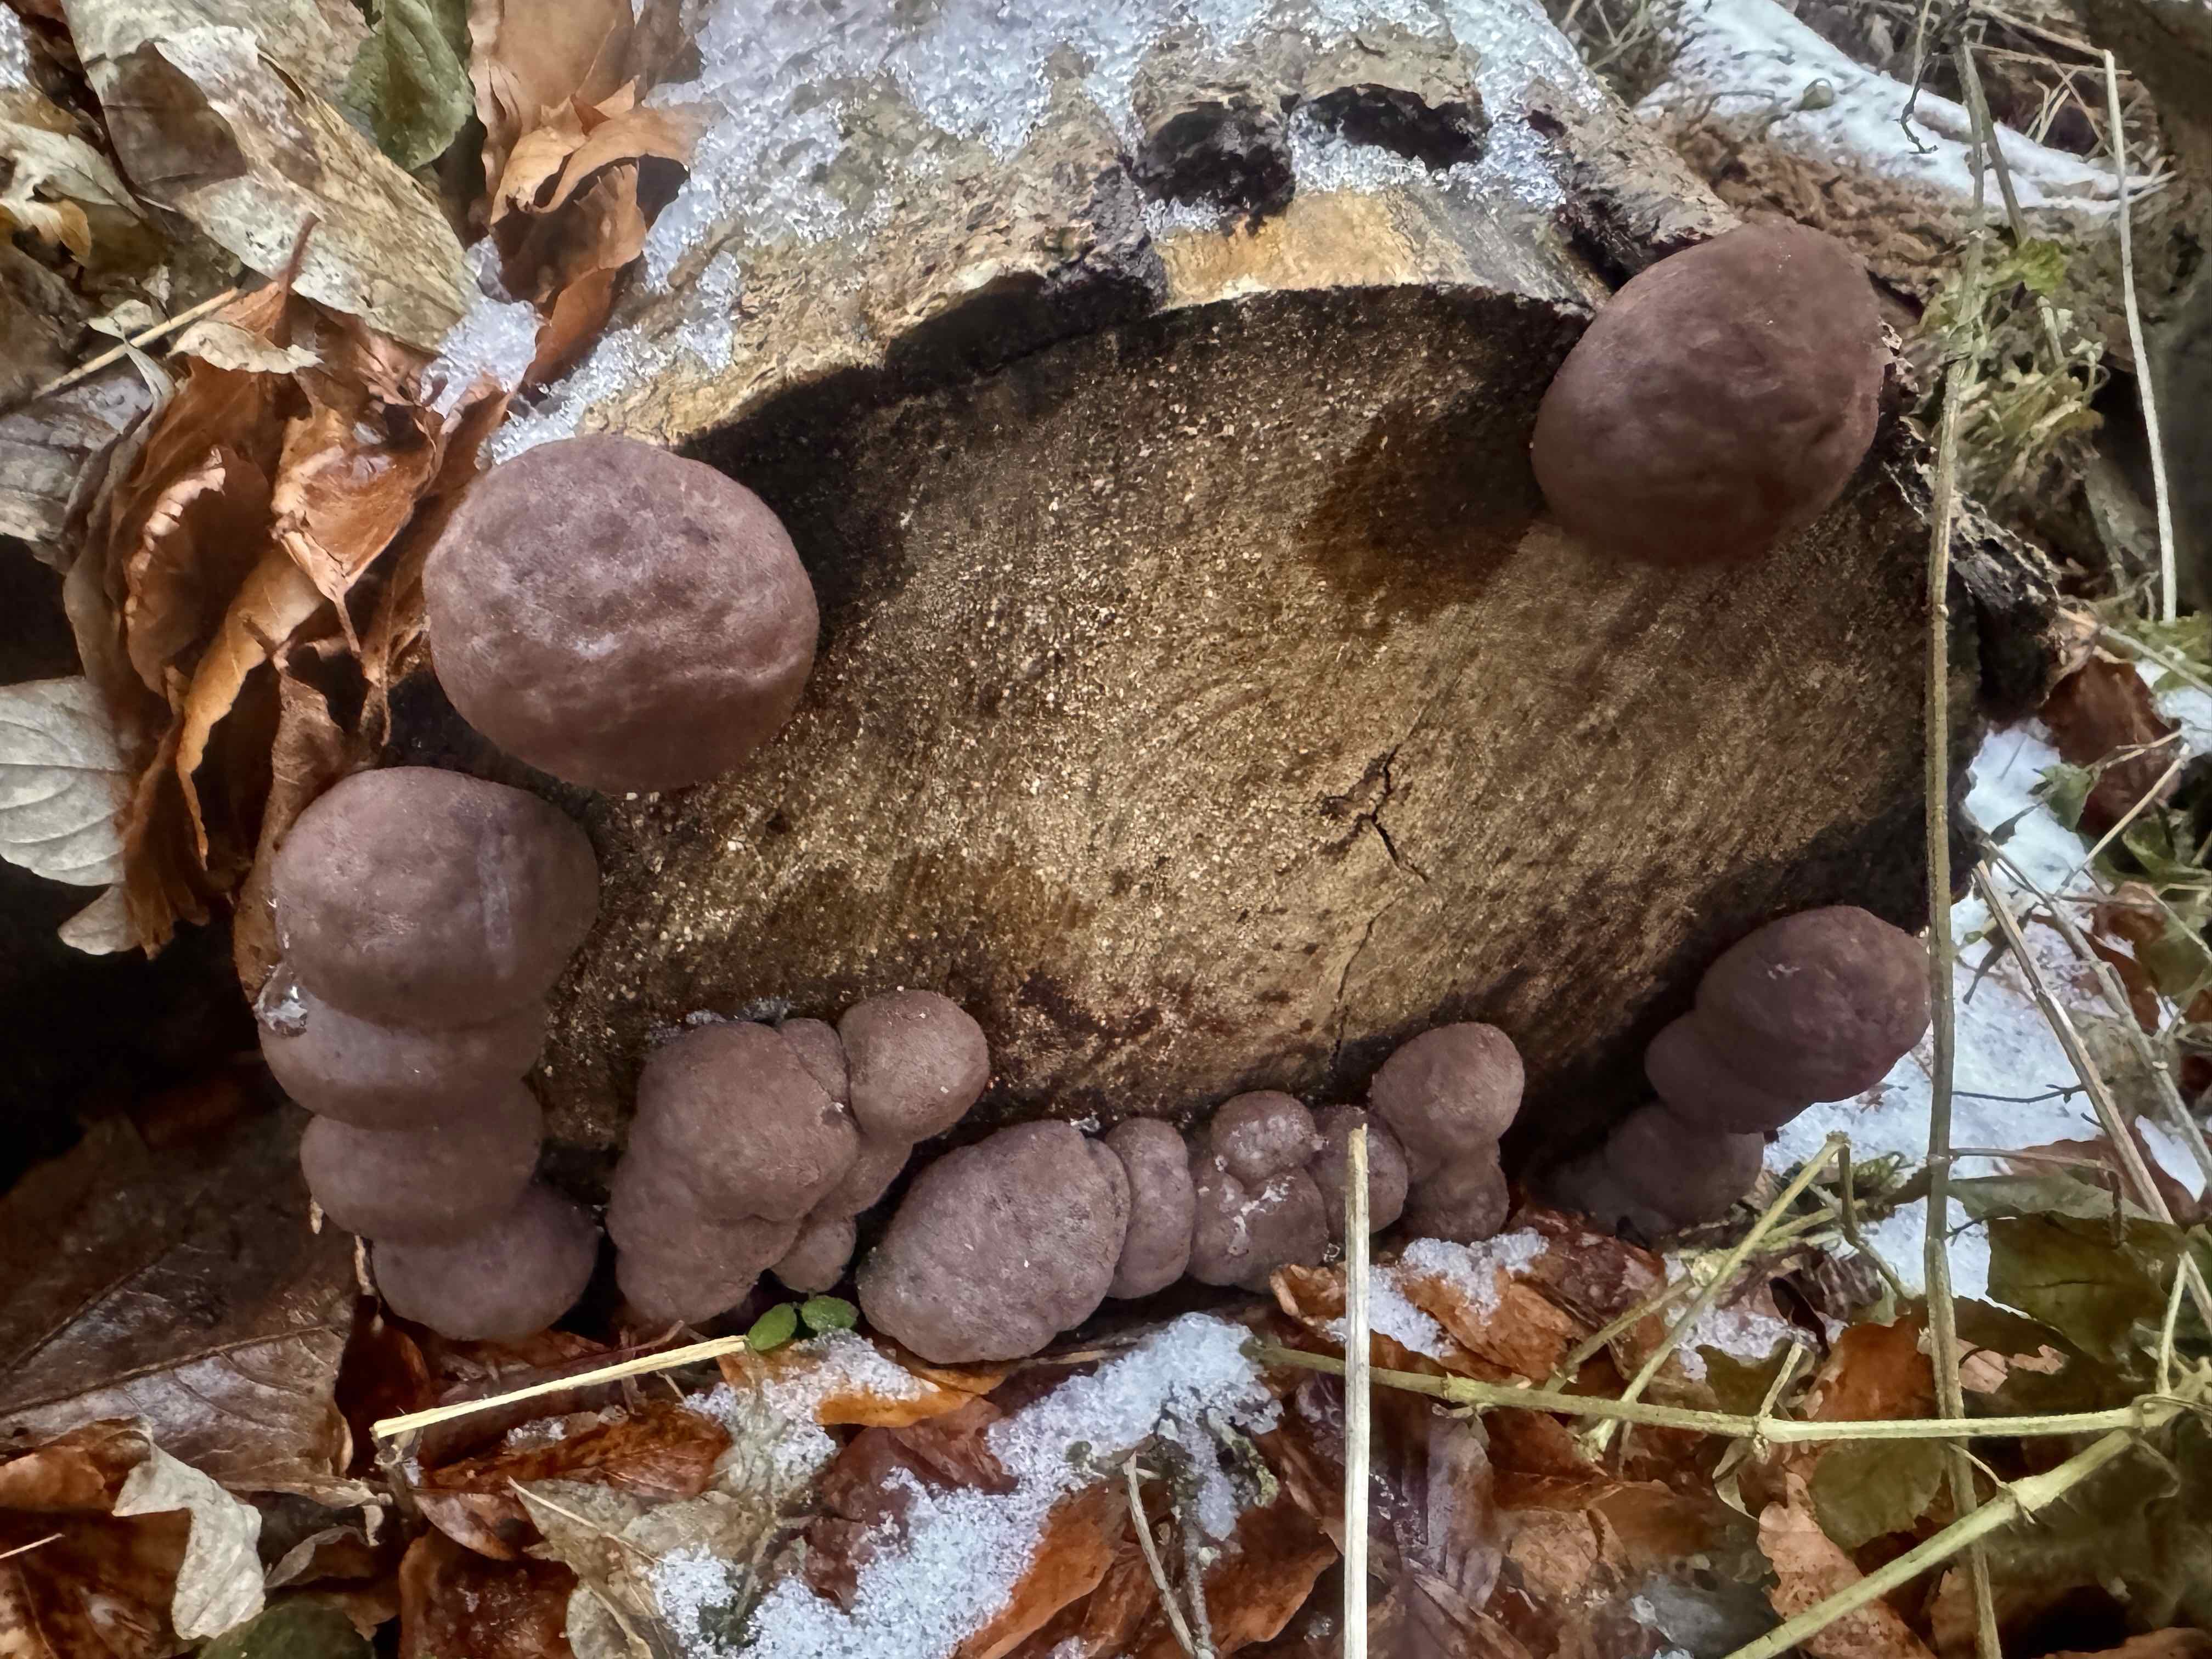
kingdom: Fungi
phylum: Ascomycota
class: Sordariomycetes
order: Xylariales
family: Hypoxylaceae
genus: Daldinia
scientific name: Daldinia concentrica
